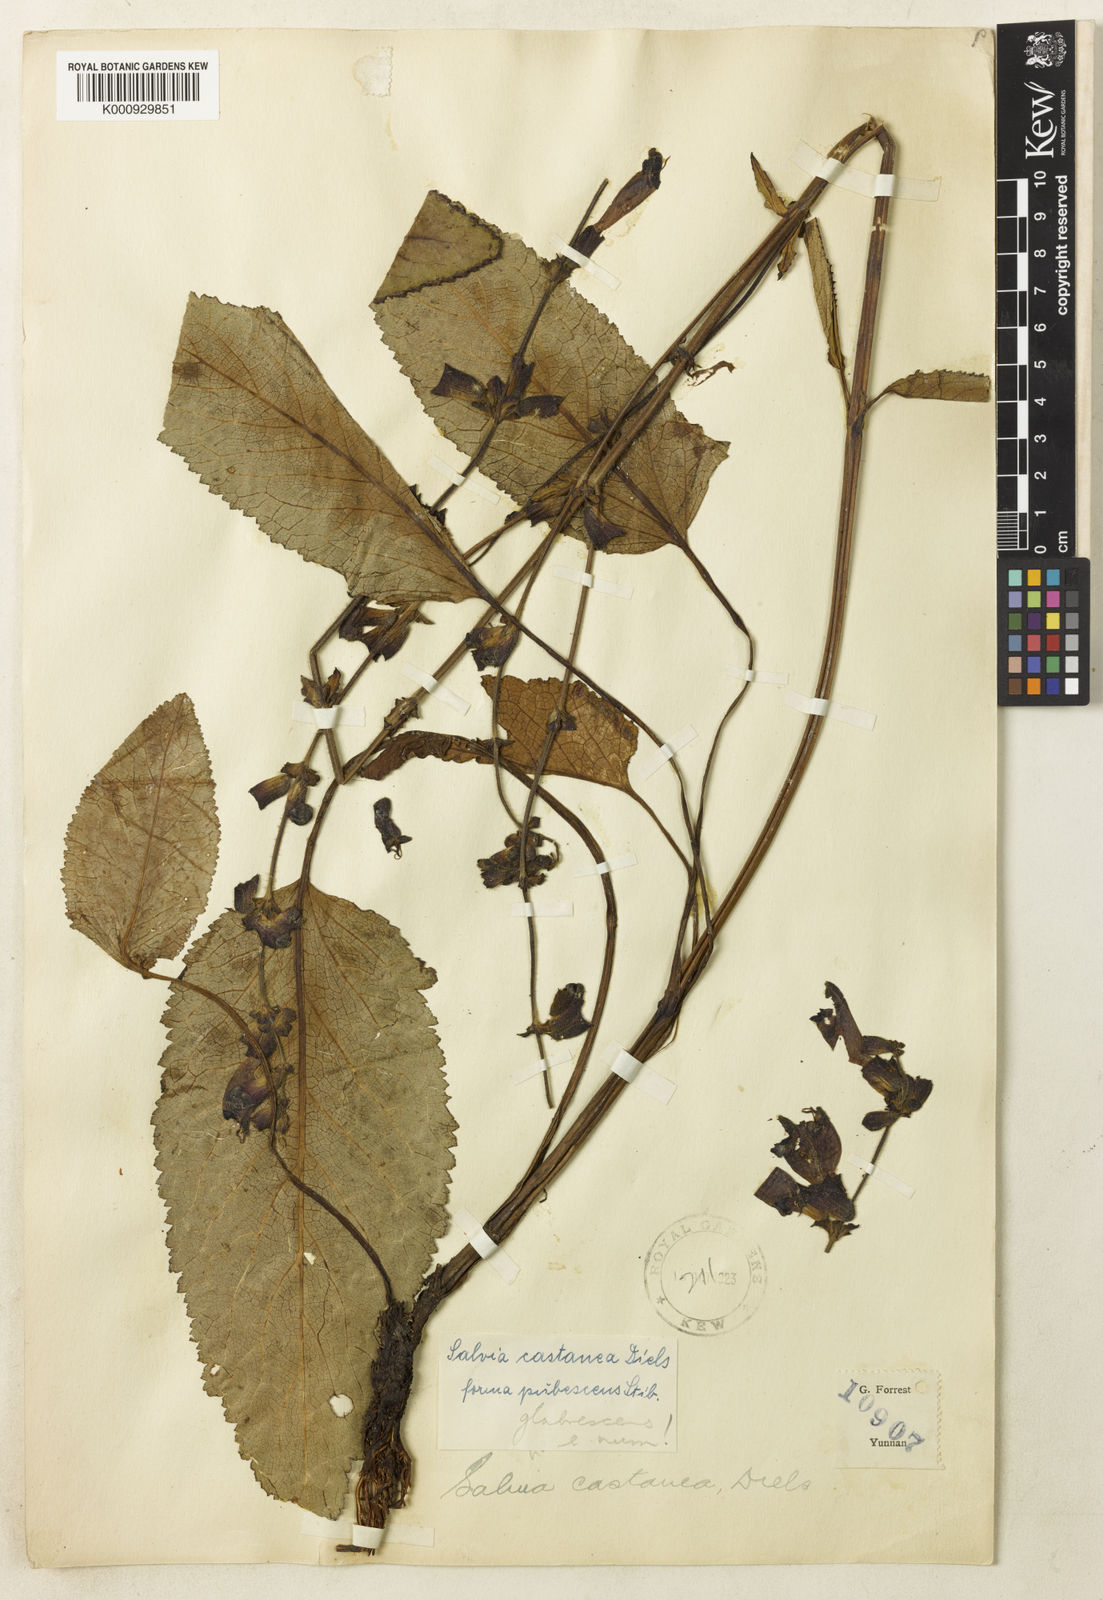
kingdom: Plantae
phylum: Tracheophyta
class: Magnoliopsida
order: Lamiales
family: Lamiaceae
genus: Salvia
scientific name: Salvia castanea
